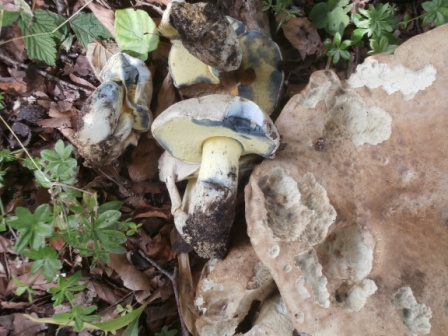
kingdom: Fungi
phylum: Basidiomycota
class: Agaricomycetes
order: Boletales
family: Boletaceae
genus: Caloboletus
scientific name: Caloboletus radicans
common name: rod-rørhat
